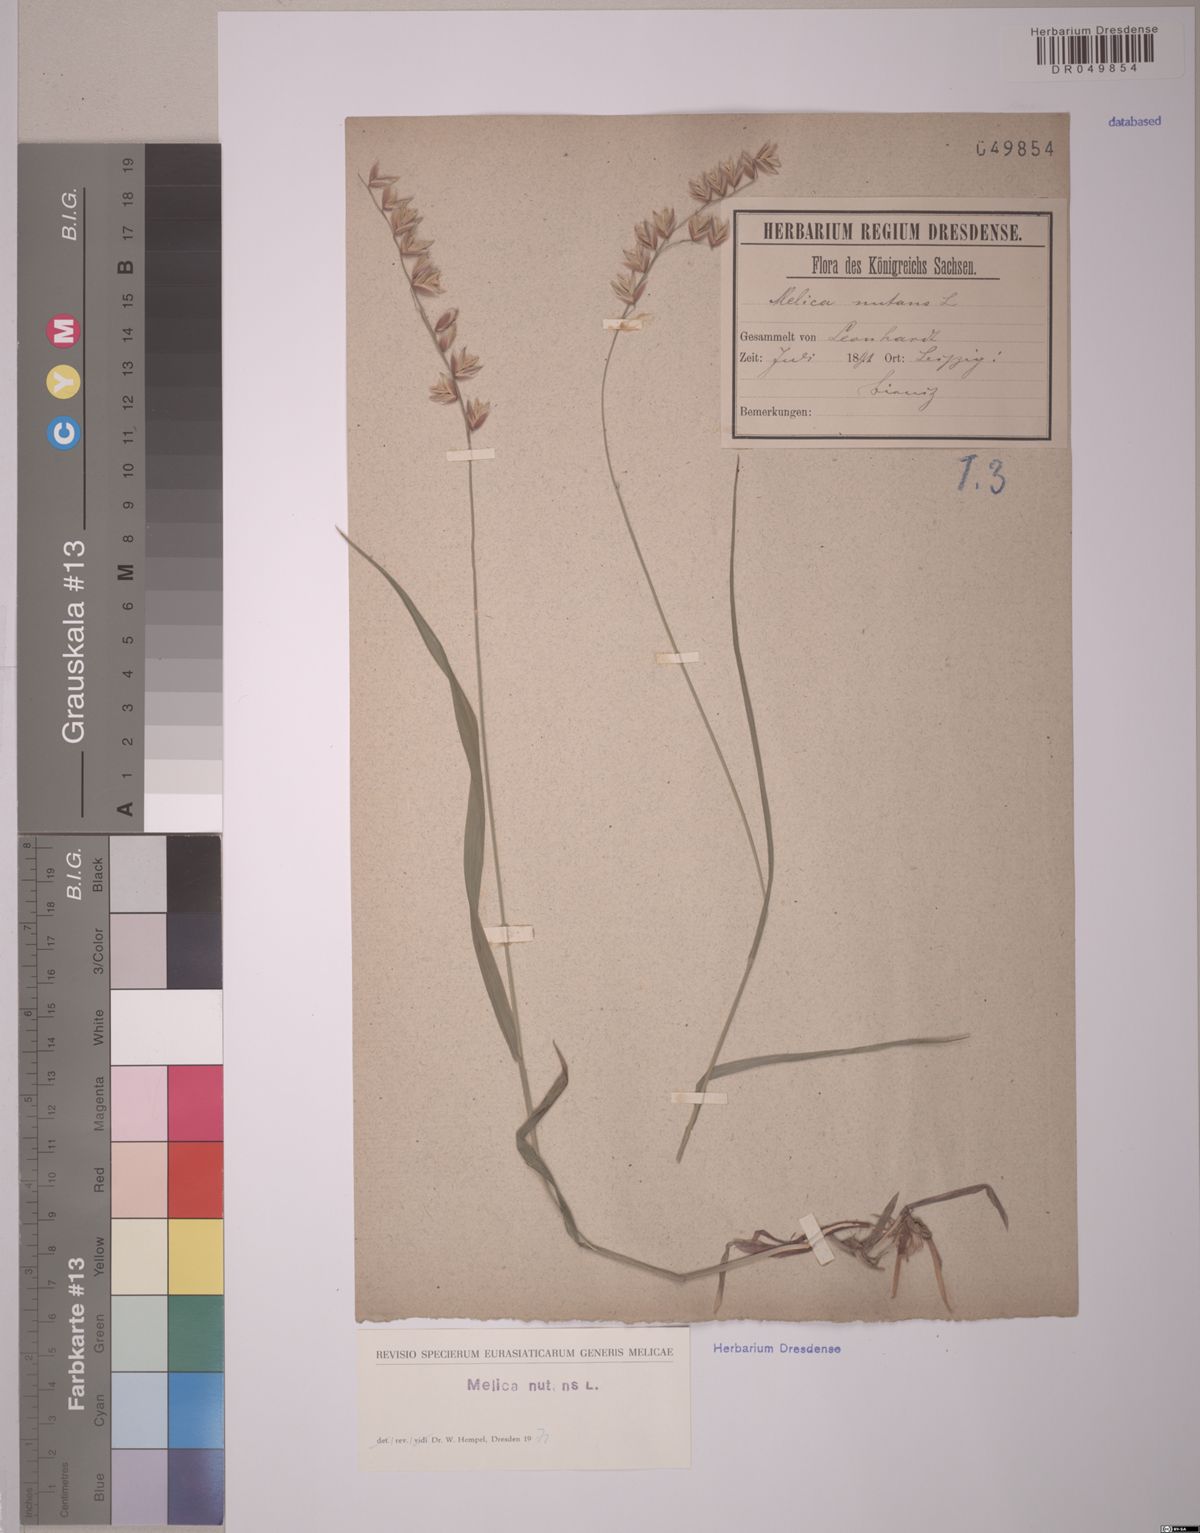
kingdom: Plantae
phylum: Tracheophyta
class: Liliopsida
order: Poales
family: Poaceae
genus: Melica
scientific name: Melica nutans
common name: Mountain melick
